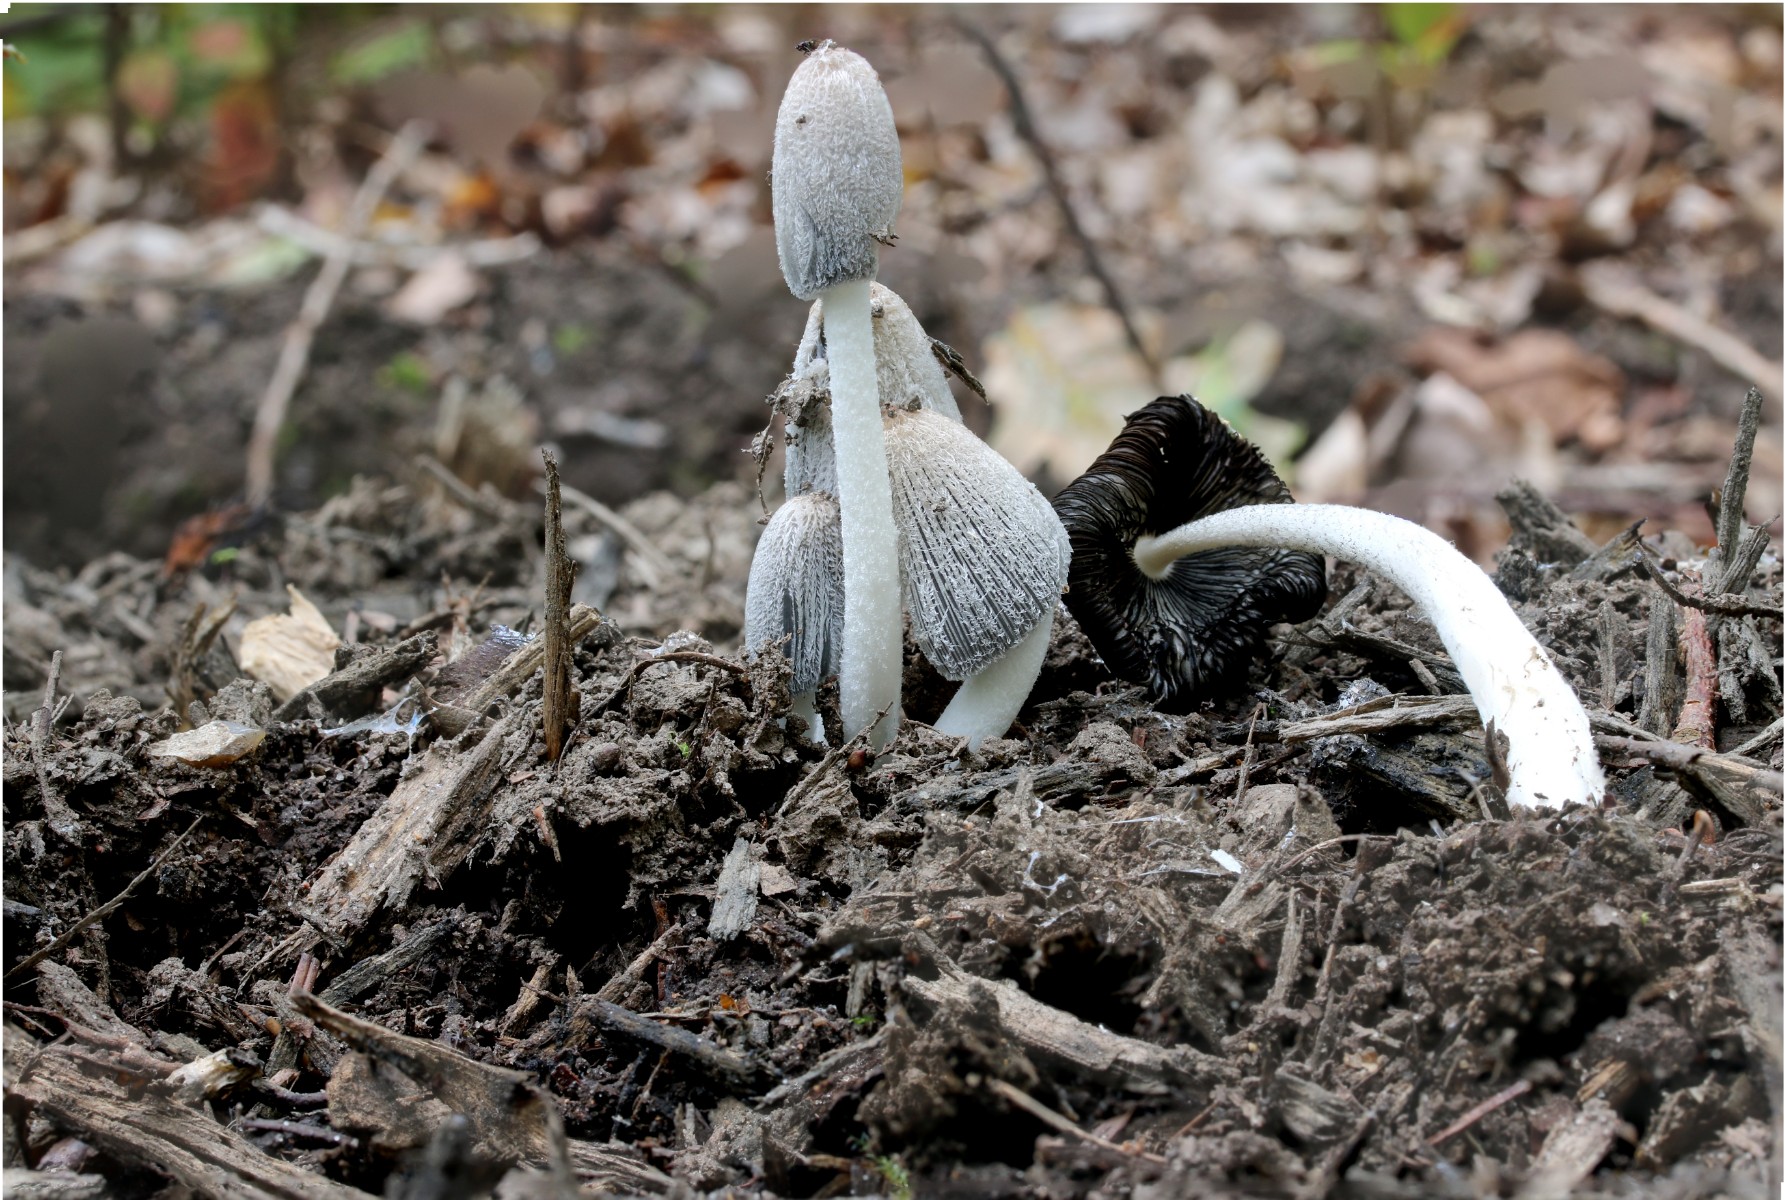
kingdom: Fungi
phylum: Basidiomycota
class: Agaricomycetes
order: Agaricales
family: Psathyrellaceae
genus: Coprinopsis
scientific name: Coprinopsis lagopus
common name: dunstokket blækhat
